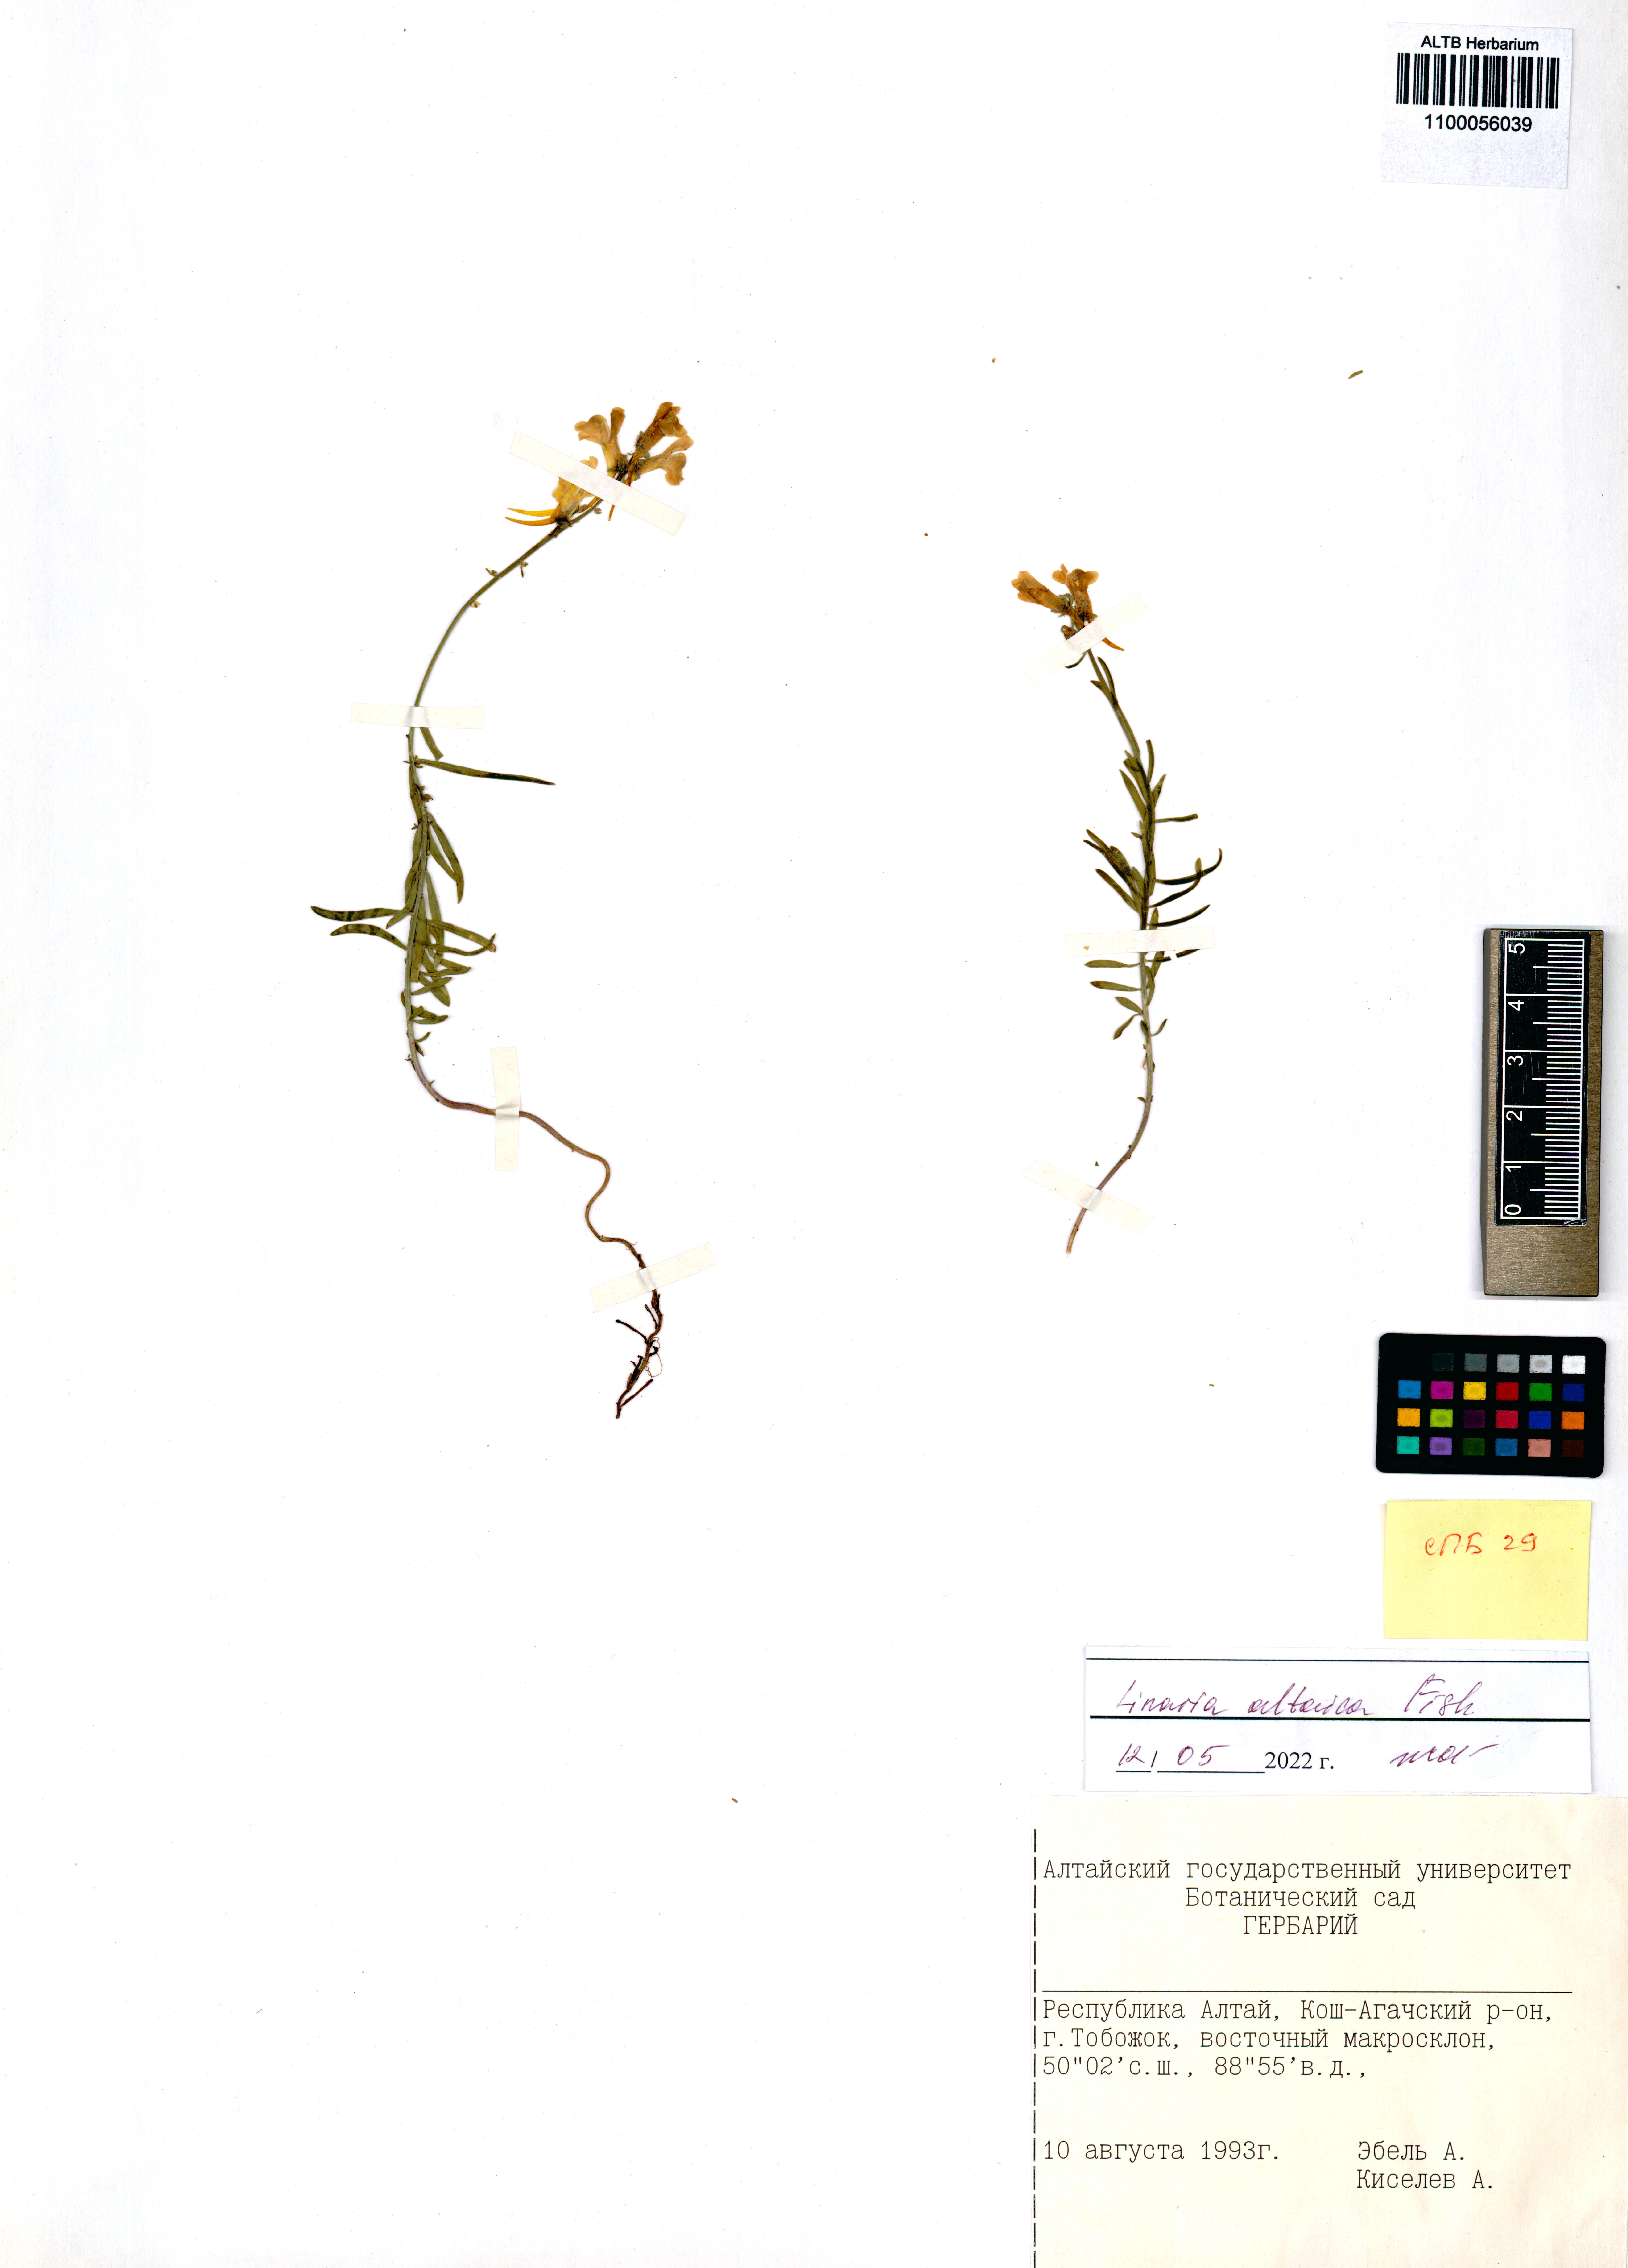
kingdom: Plantae
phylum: Tracheophyta
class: Magnoliopsida
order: Lamiales
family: Plantaginaceae
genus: Linaria
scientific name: Linaria altaica
